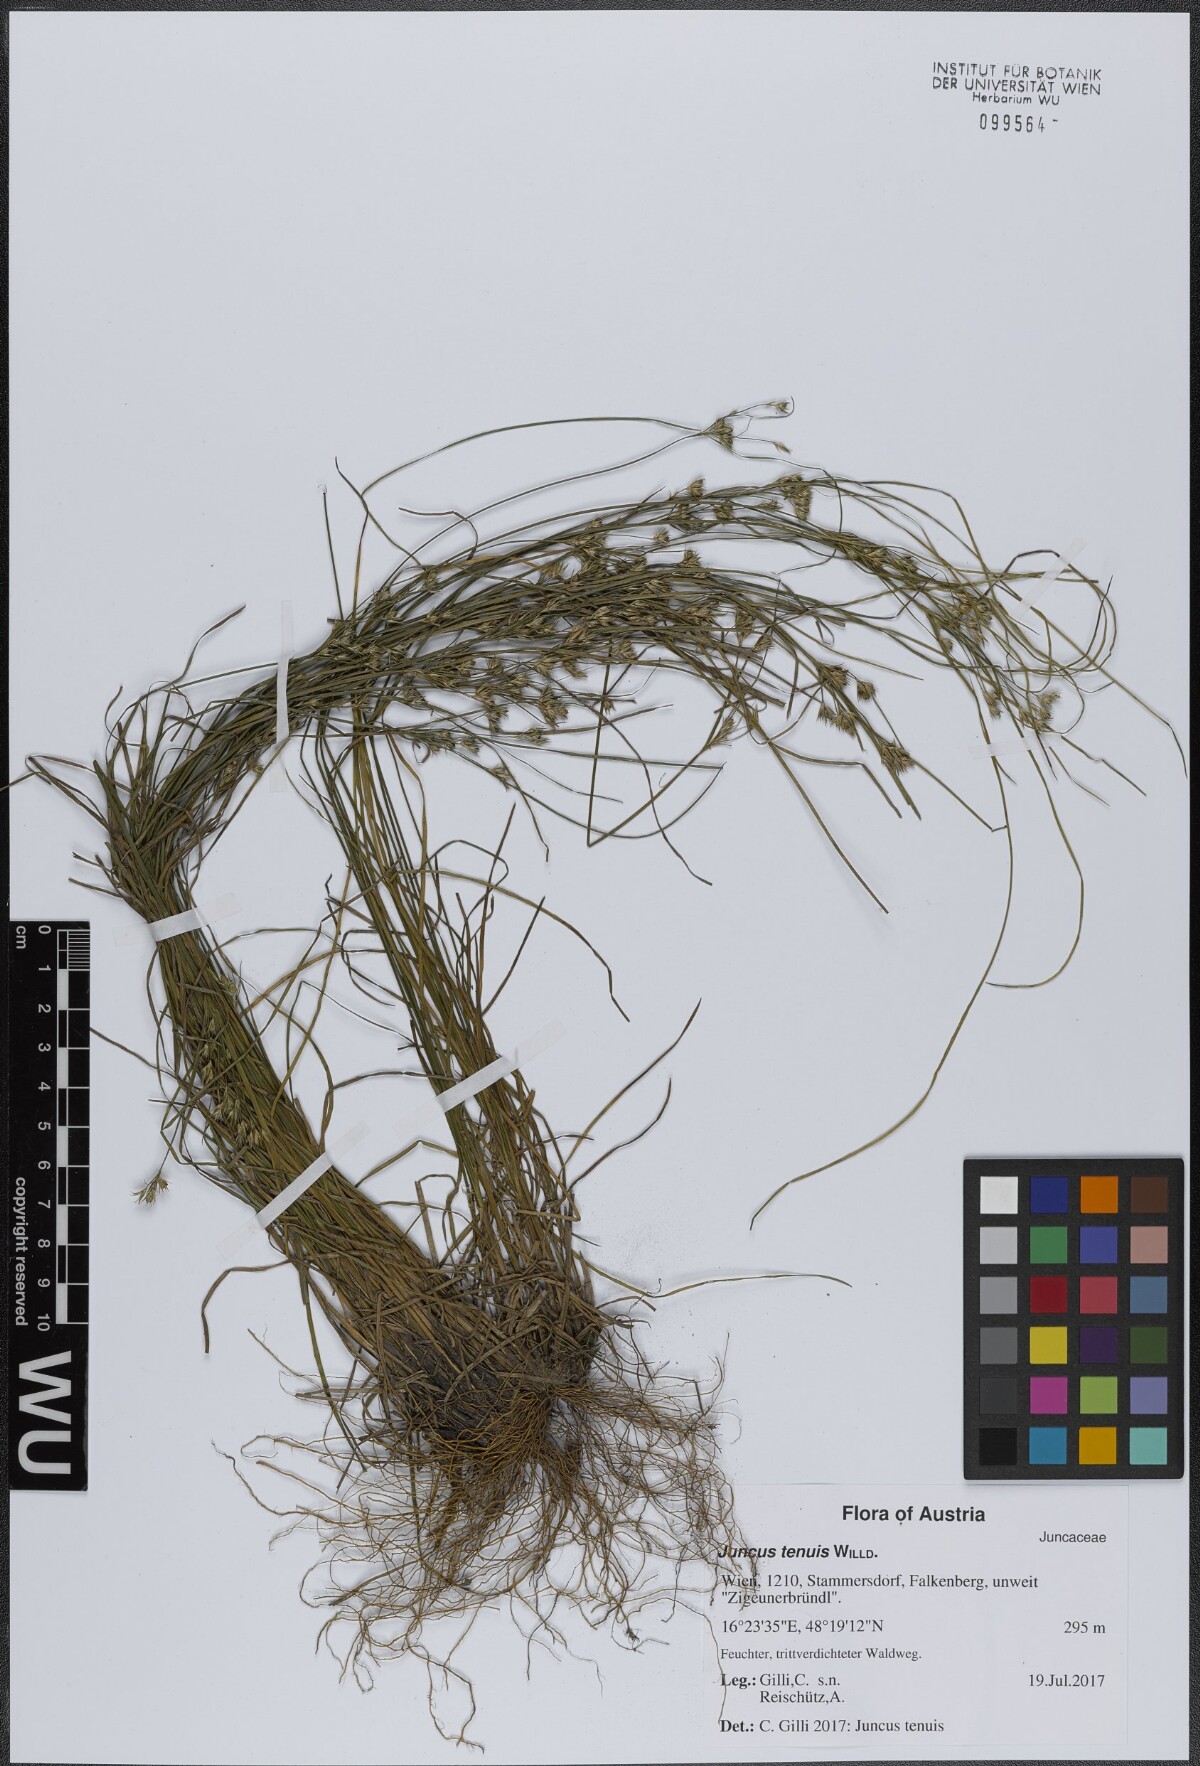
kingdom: Plantae
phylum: Tracheophyta
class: Liliopsida
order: Poales
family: Juncaceae
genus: Juncus
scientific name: Juncus tenuis
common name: Slender rush
